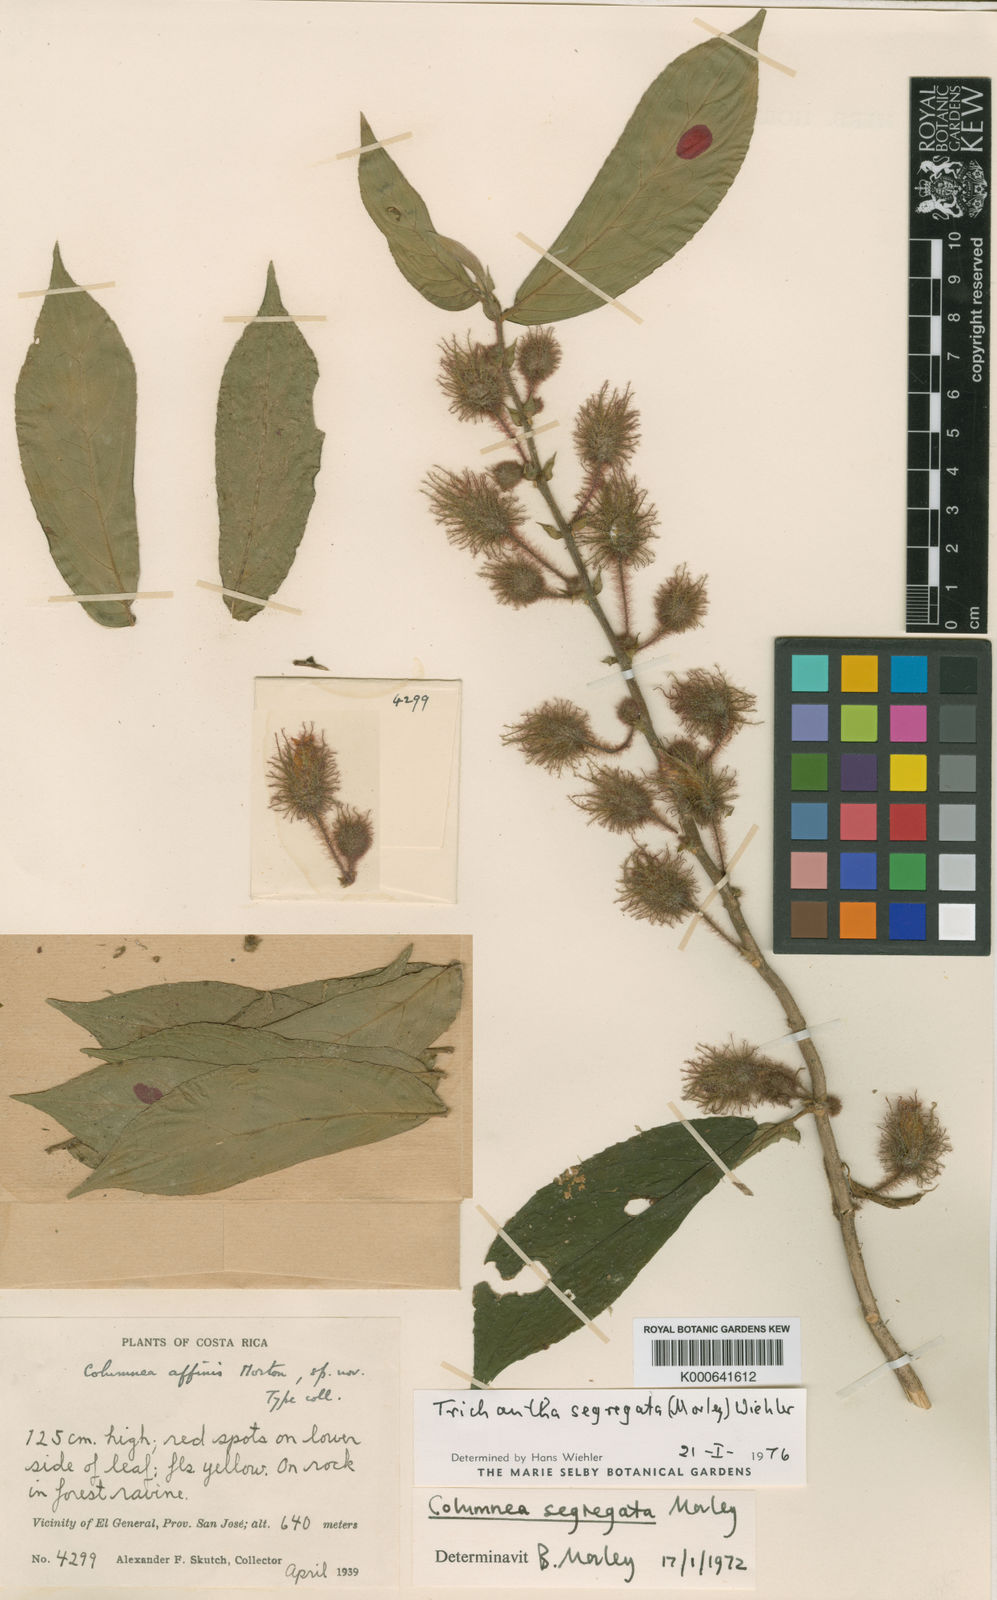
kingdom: Plantae
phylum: Tracheophyta
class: Magnoliopsida
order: Lamiales
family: Gesneriaceae
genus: Columnea
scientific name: Columnea segregata
